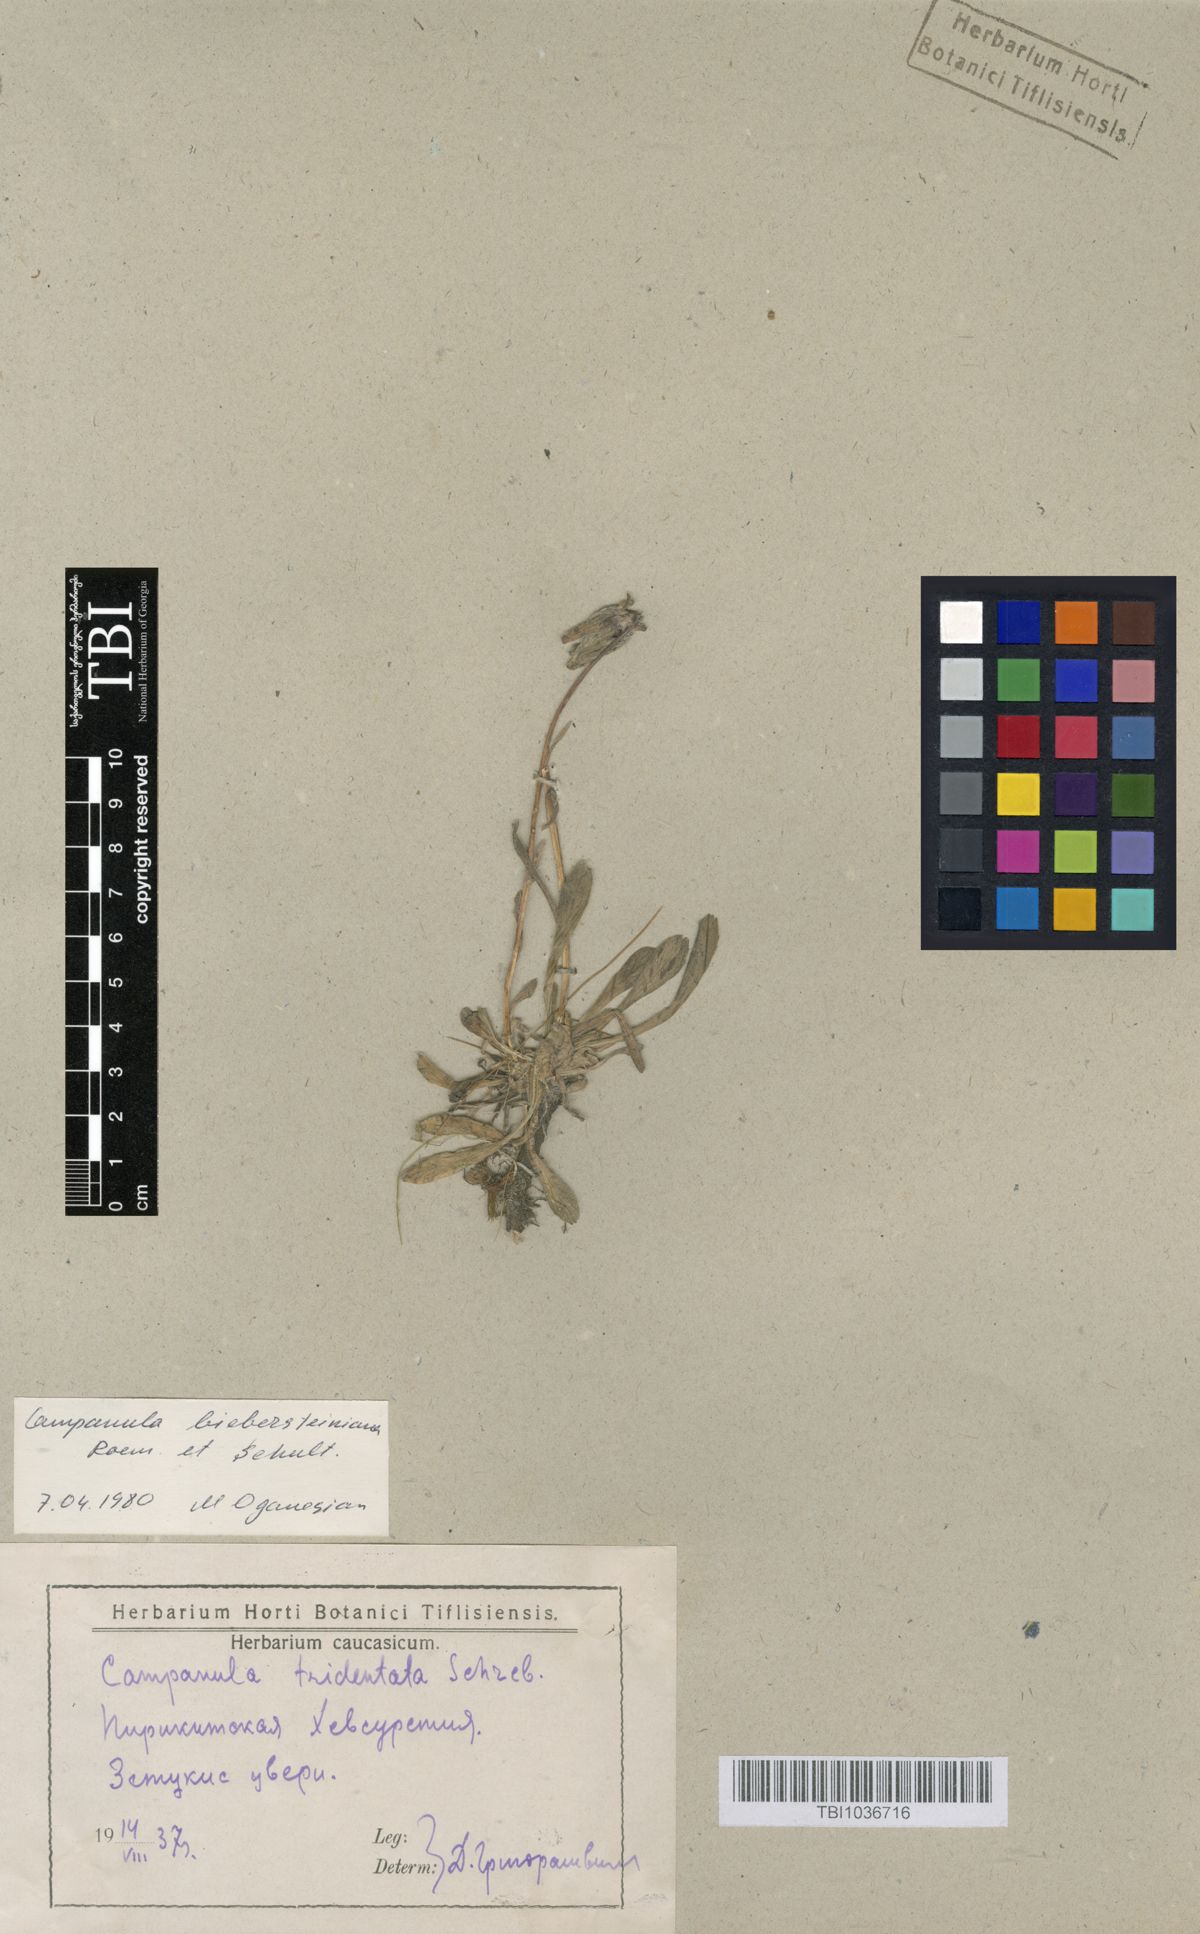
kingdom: Plantae
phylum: Tracheophyta
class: Magnoliopsida
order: Asterales
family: Campanulaceae
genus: Campanula
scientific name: Campanula tridentata
